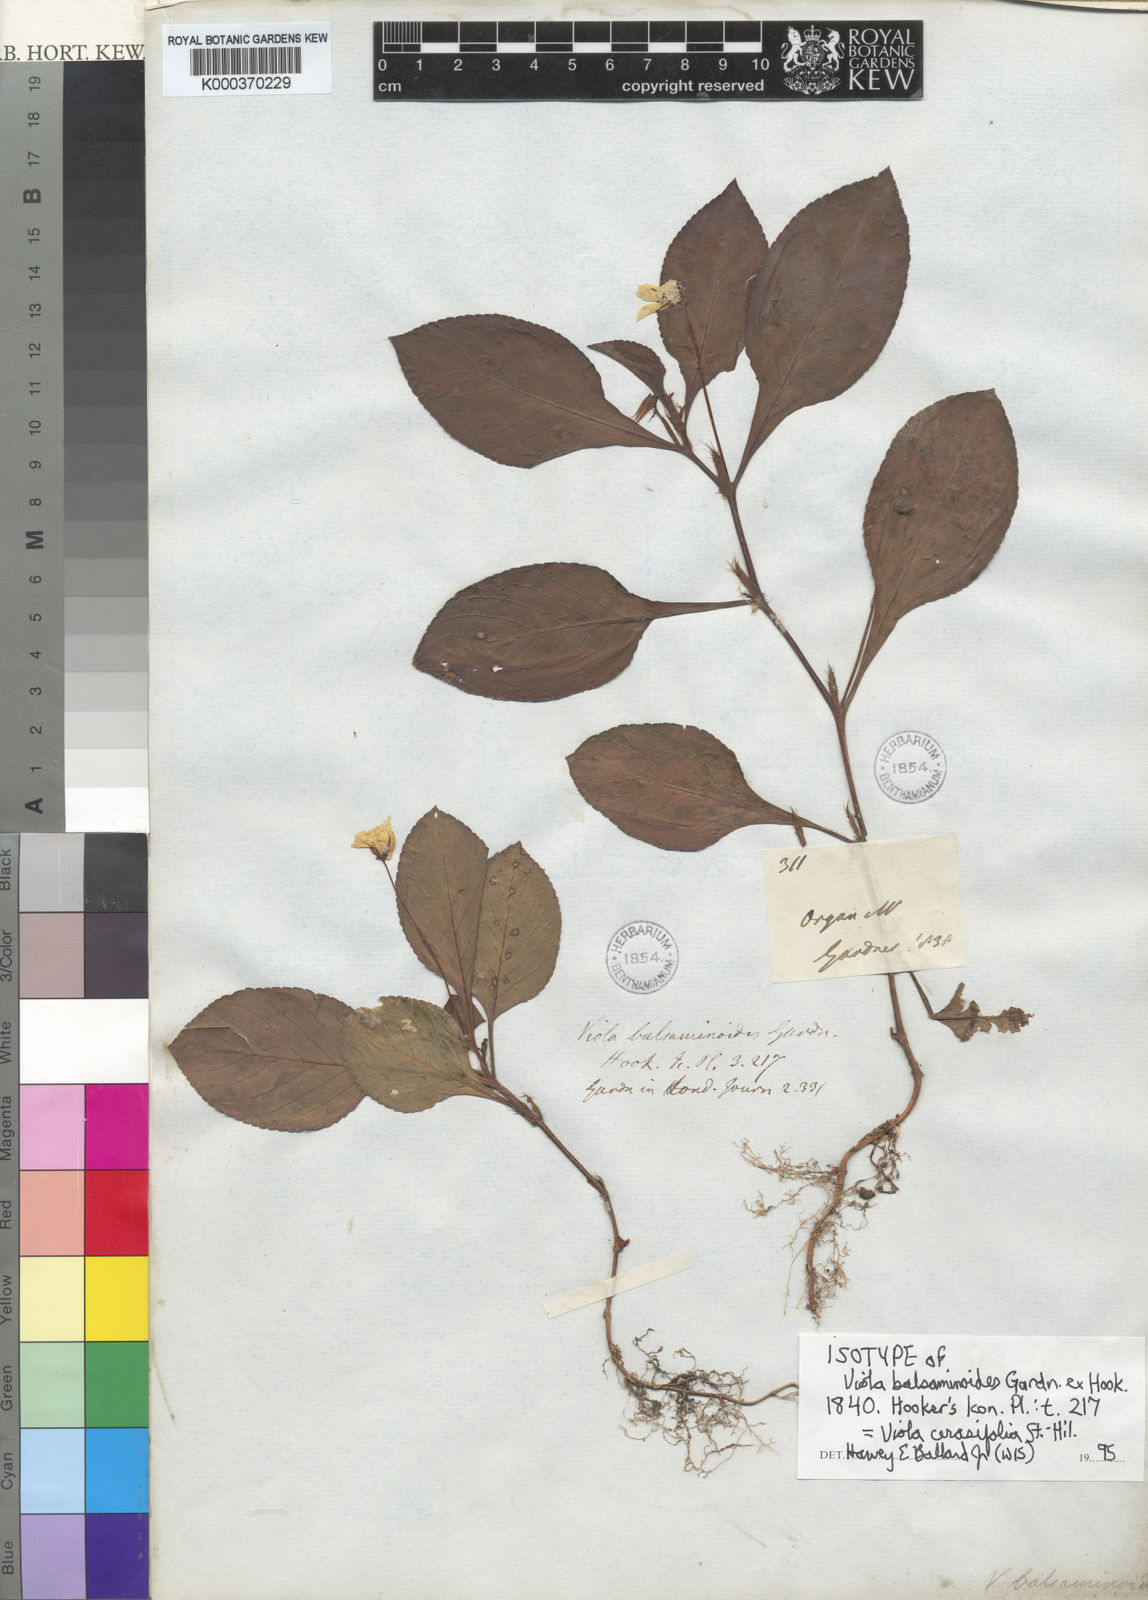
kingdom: Plantae
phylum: Tracheophyta
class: Magnoliopsida
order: Malpighiales
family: Violaceae
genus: Viola
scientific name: Viola cerasifolia
